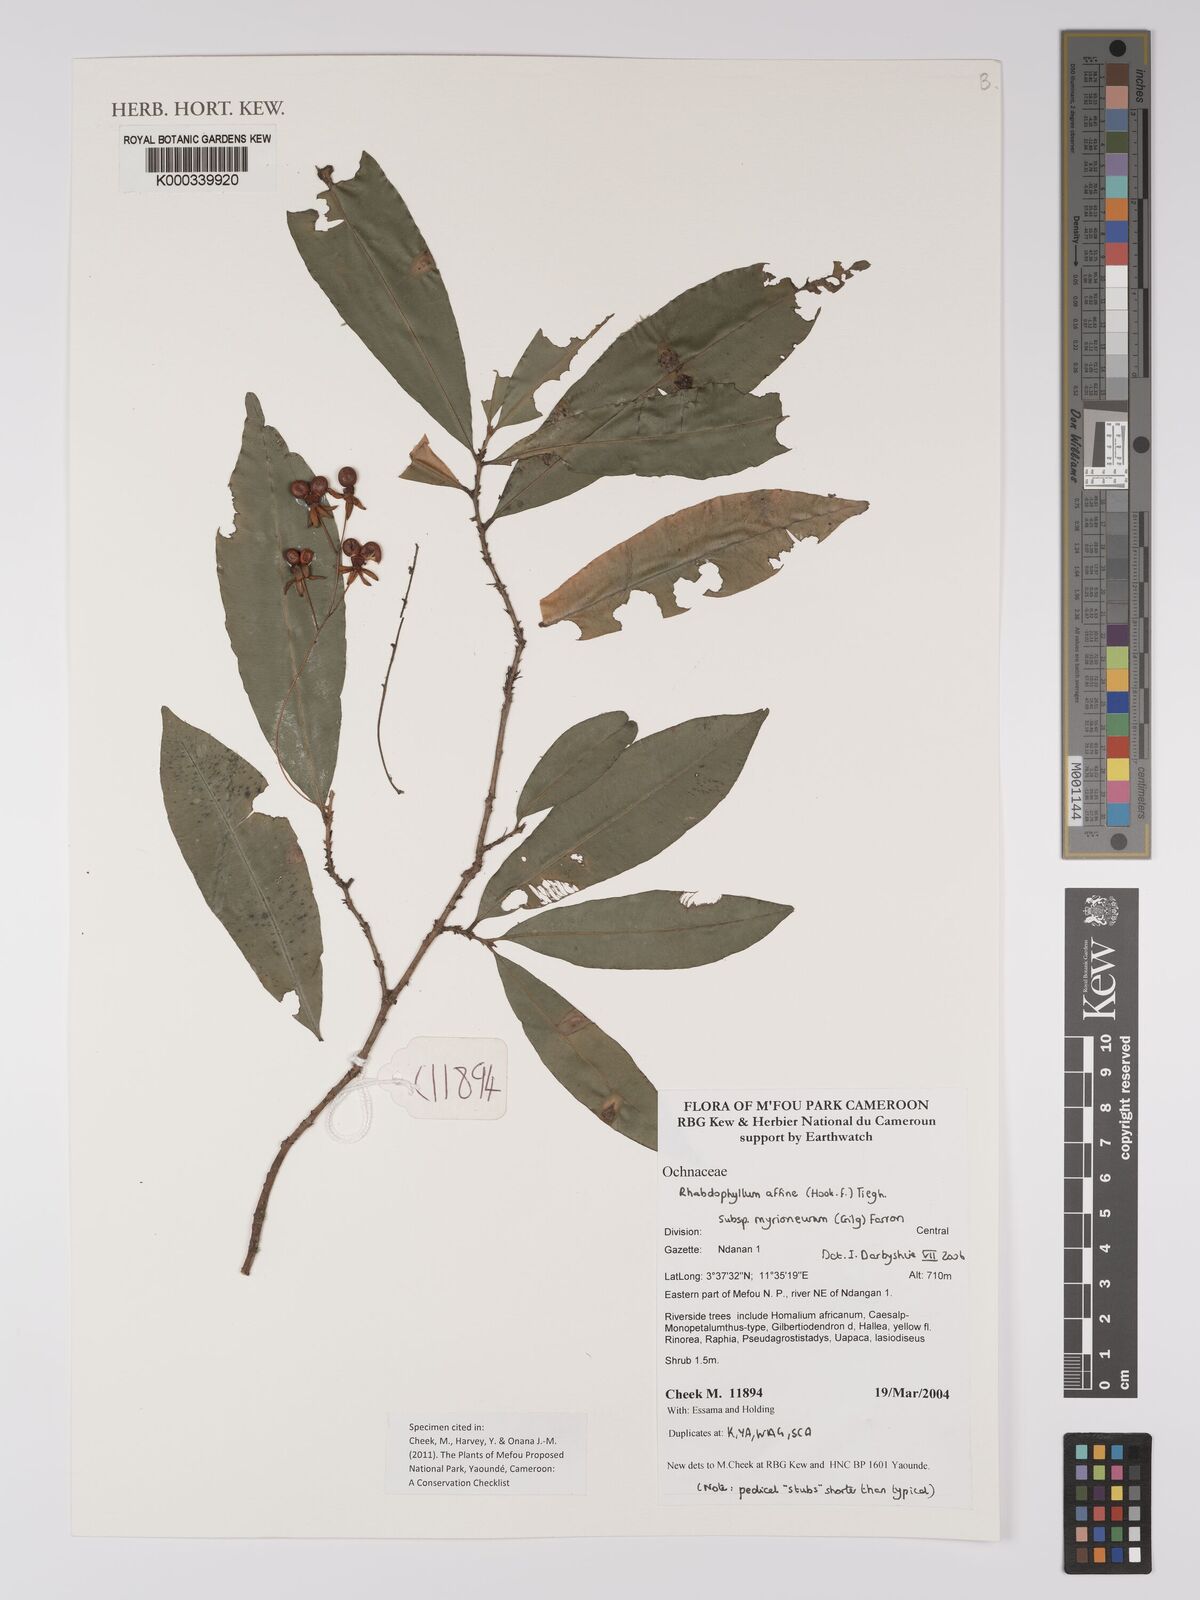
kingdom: Plantae
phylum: Tracheophyta
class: Magnoliopsida
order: Malpighiales
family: Ochnaceae
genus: Rhabdophyllum
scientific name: Rhabdophyllum affine
